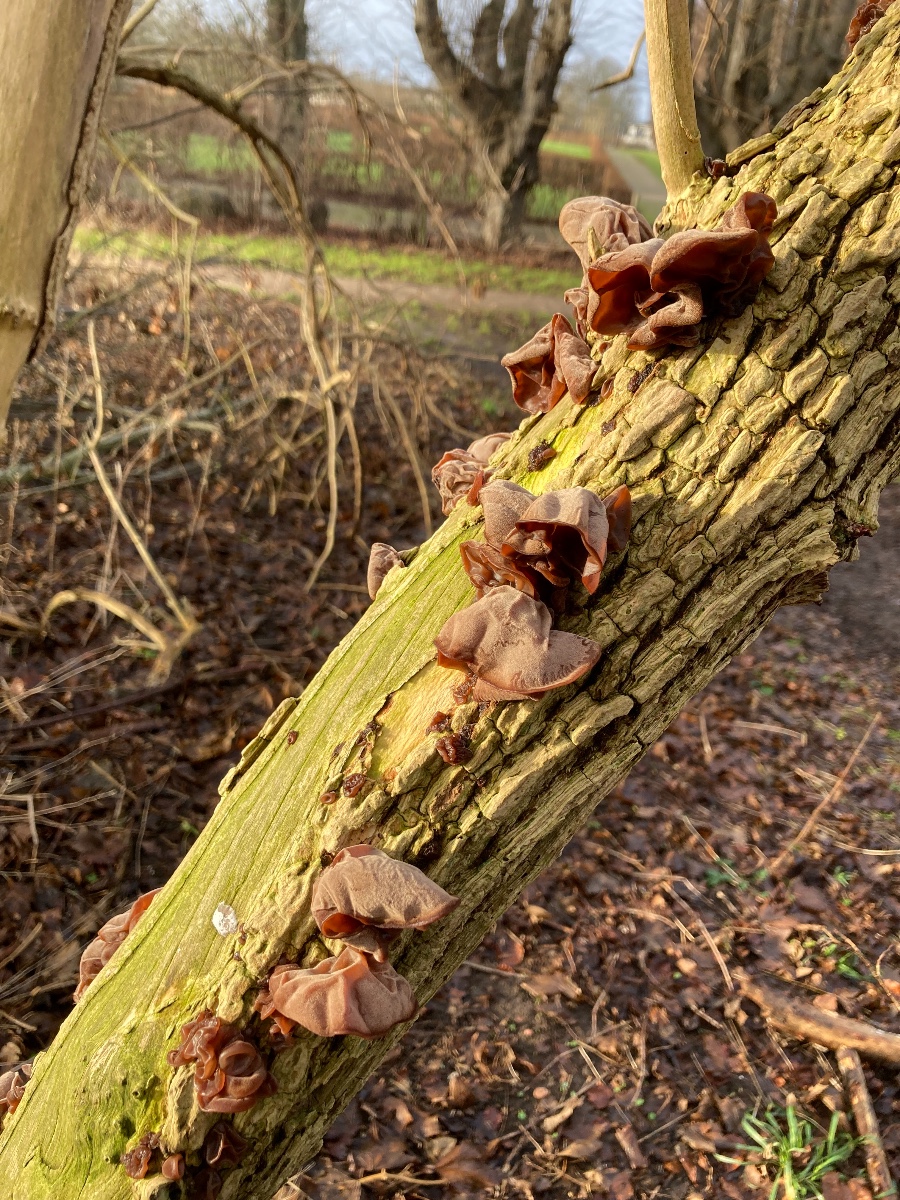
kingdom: Fungi
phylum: Basidiomycota
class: Agaricomycetes
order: Auriculariales
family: Auriculariaceae
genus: Auricularia
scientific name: Auricularia auricula-judae
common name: almindelig judasøre
